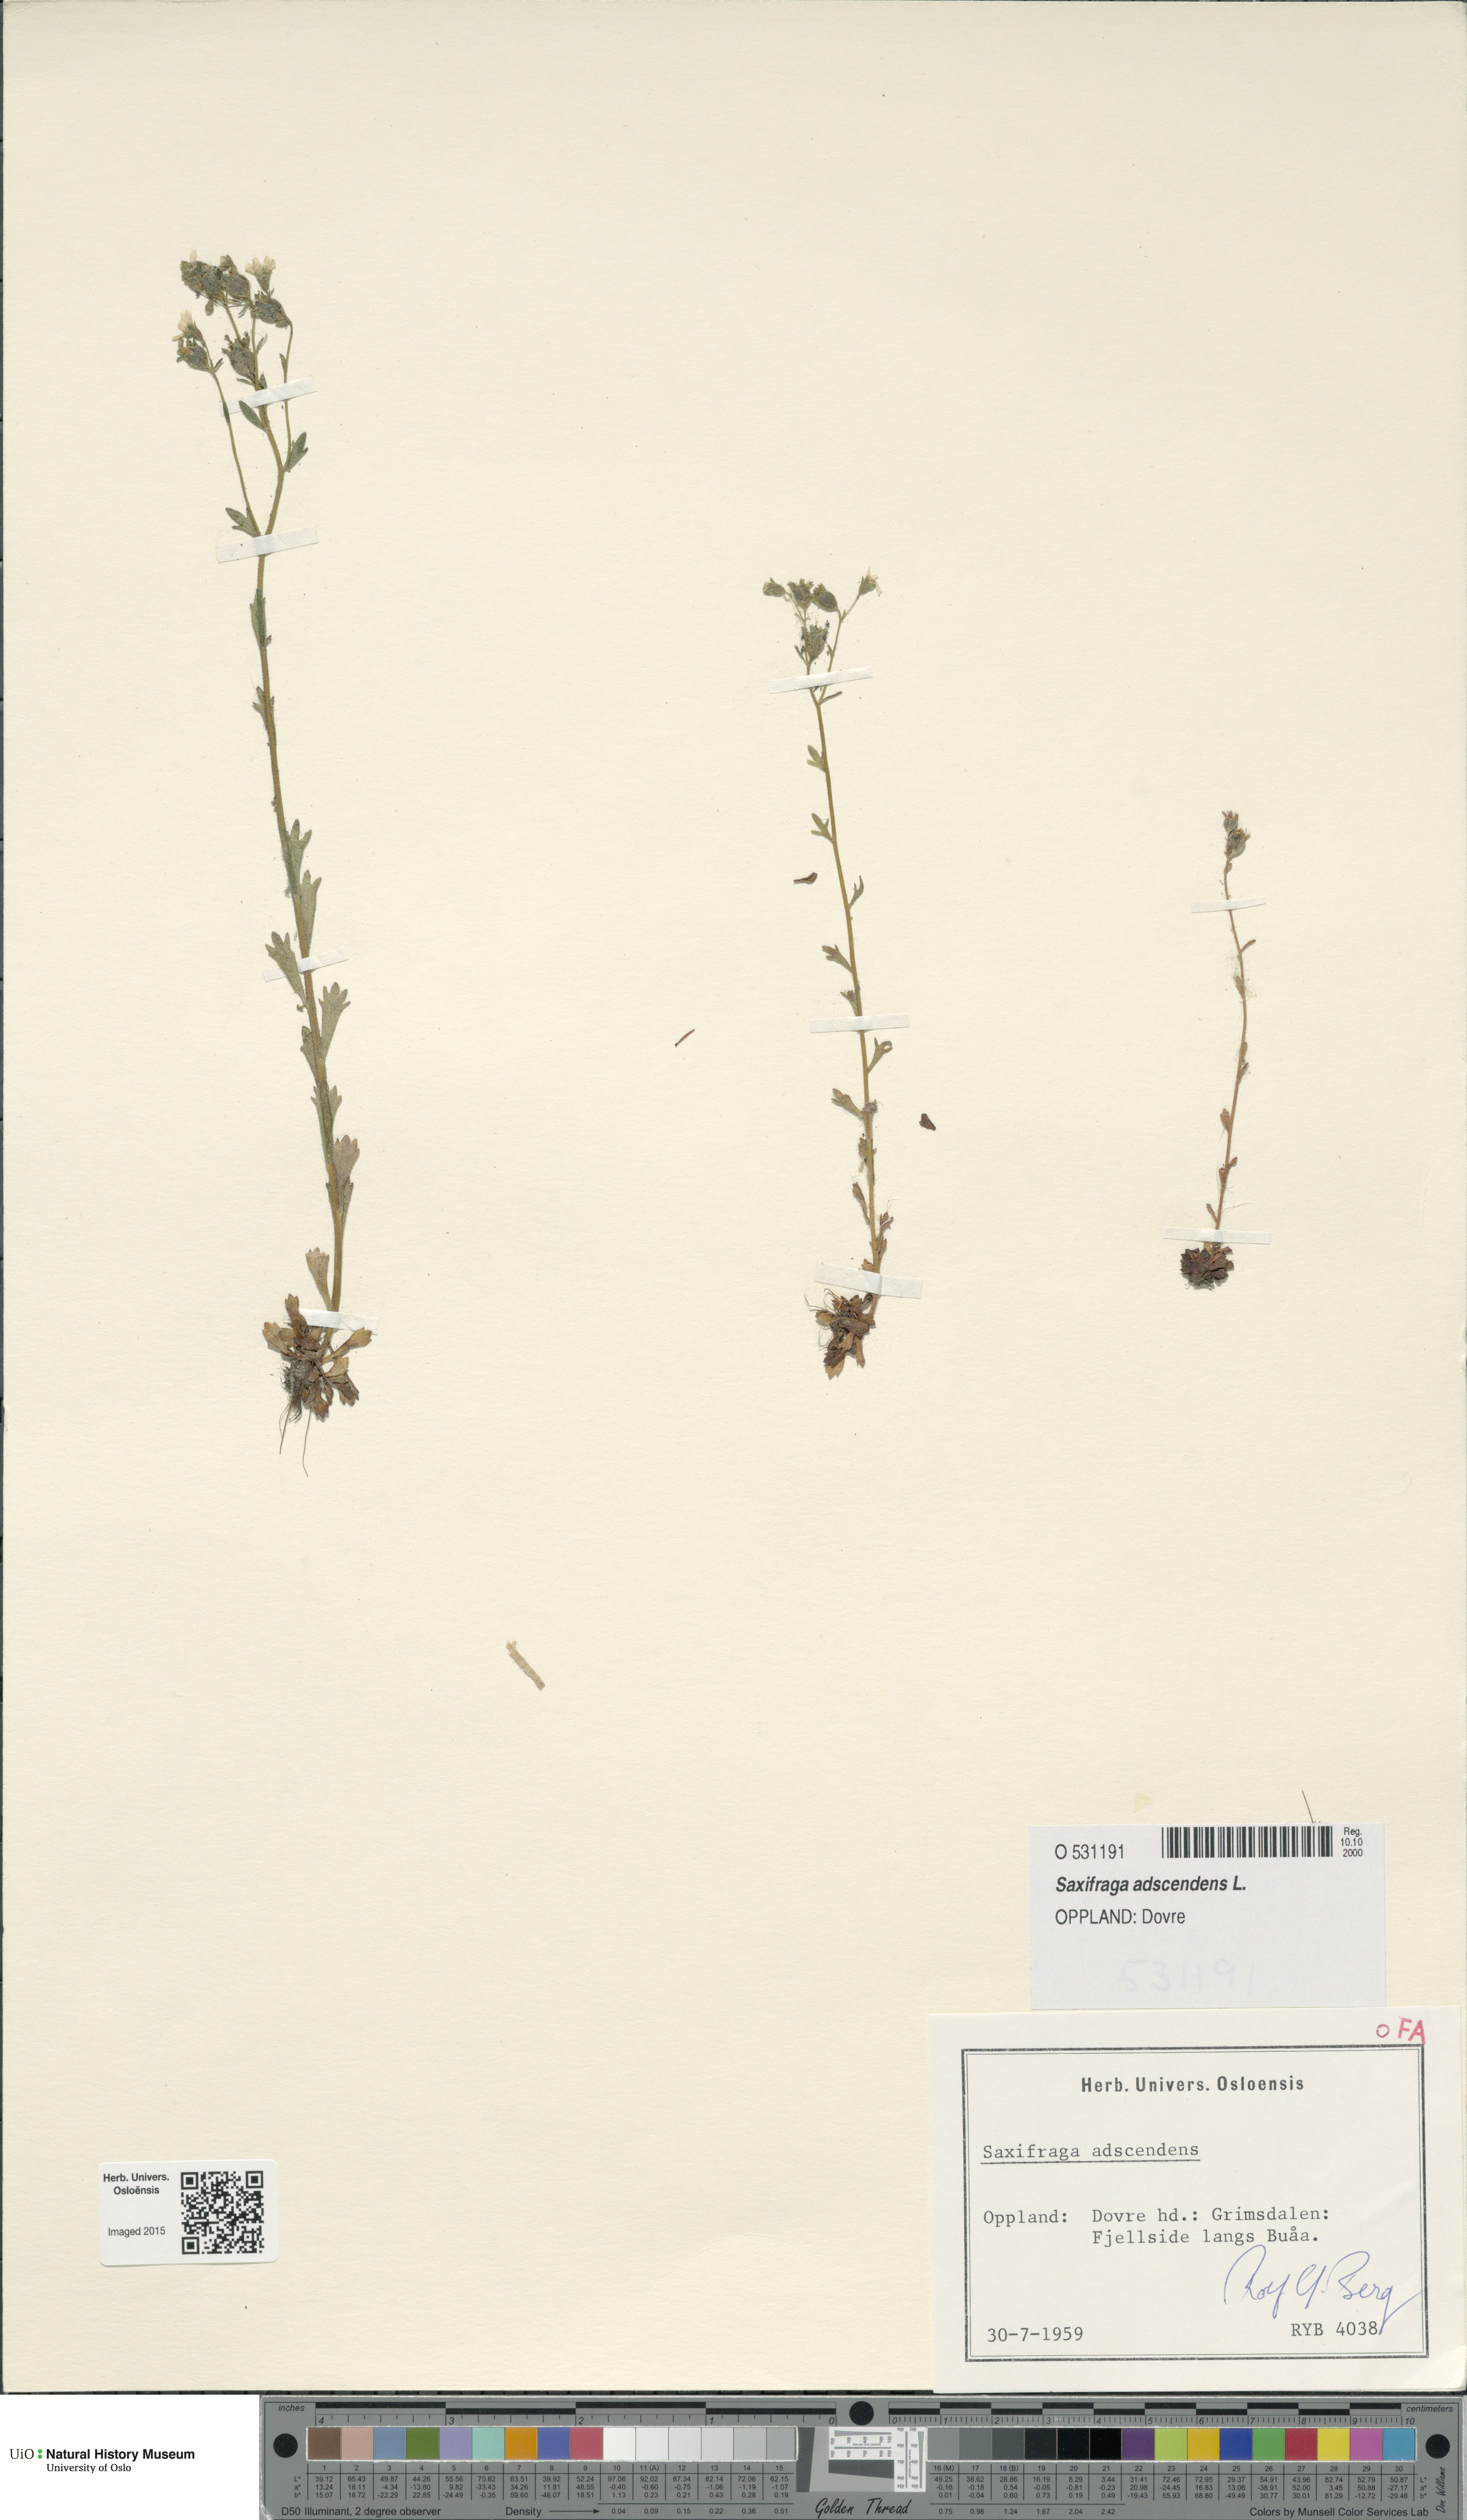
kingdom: Plantae
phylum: Tracheophyta
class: Magnoliopsida
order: Saxifragales
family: Saxifragaceae
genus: Saxifraga
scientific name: Saxifraga adscendens
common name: Ascending saxifrage
